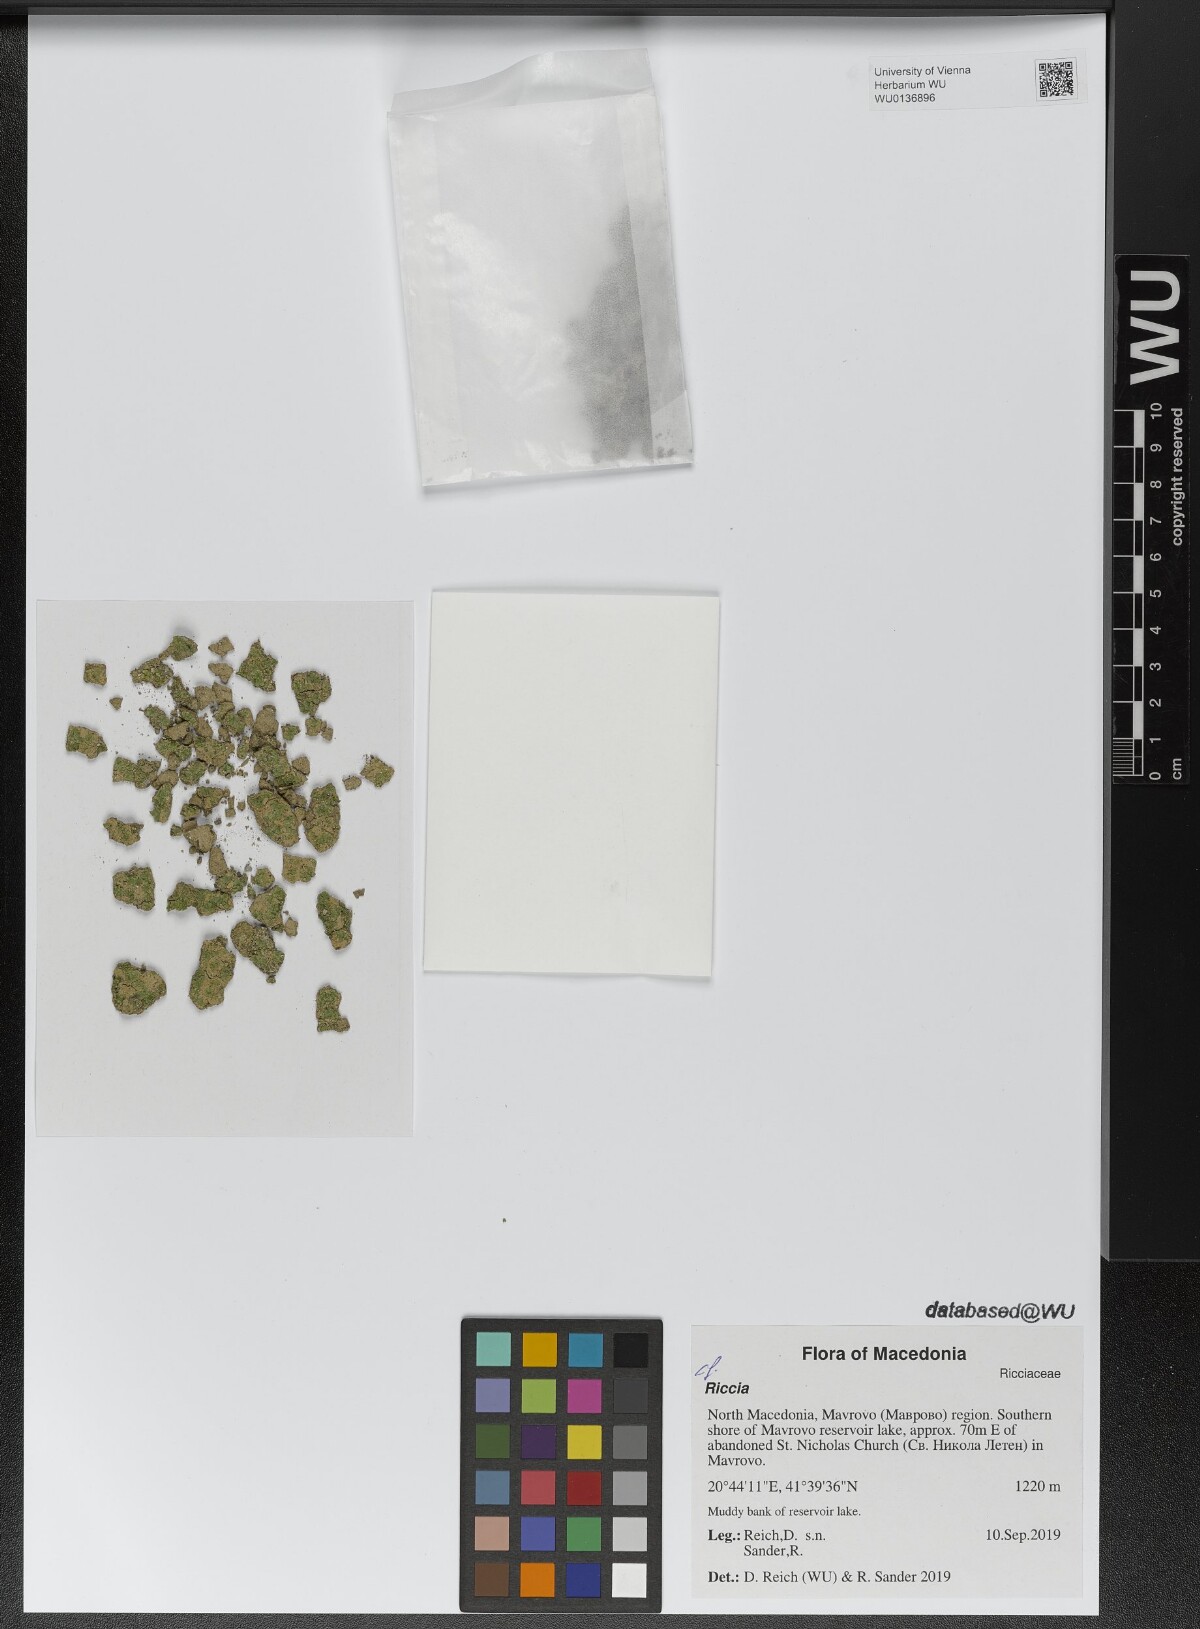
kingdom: Plantae
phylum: Marchantiophyta
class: Marchantiopsida
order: Marchantiales
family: Ricciaceae
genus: Riccia
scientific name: Riccia
